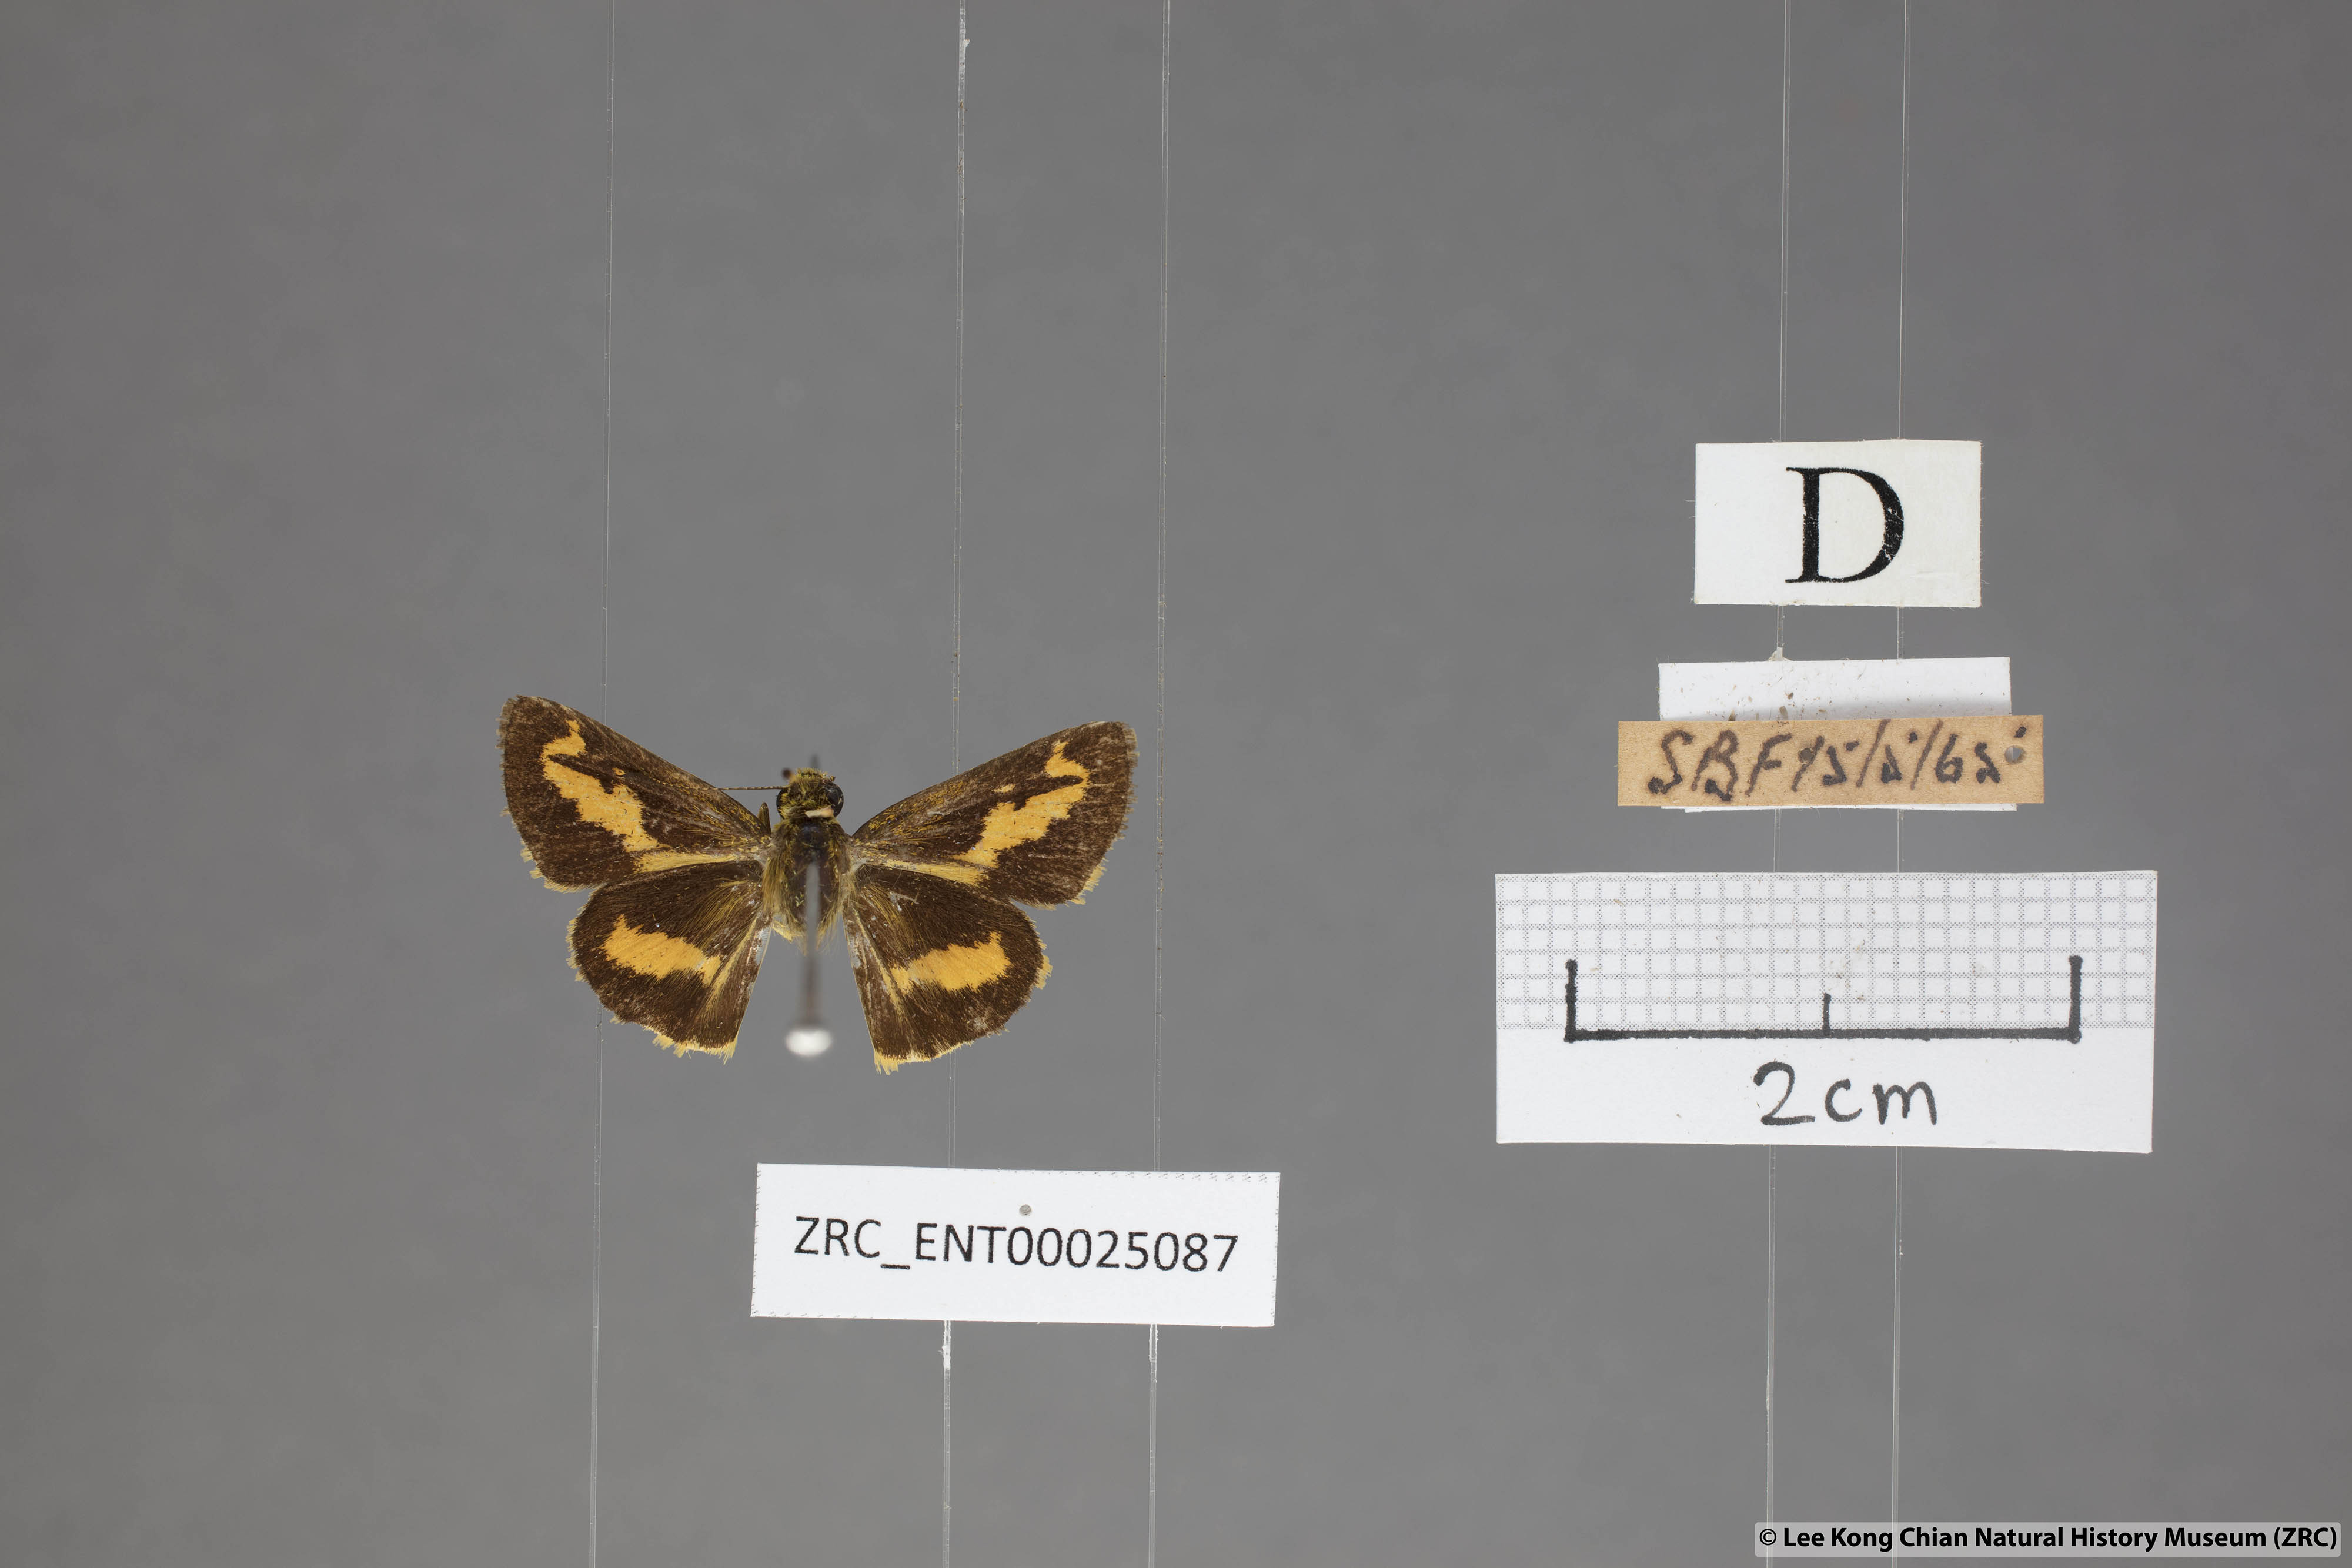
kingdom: Animalia
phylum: Arthropoda
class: Insecta
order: Lepidoptera
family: Hesperiidae
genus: Oriens
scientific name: Oriens gola
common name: Common dartlet
